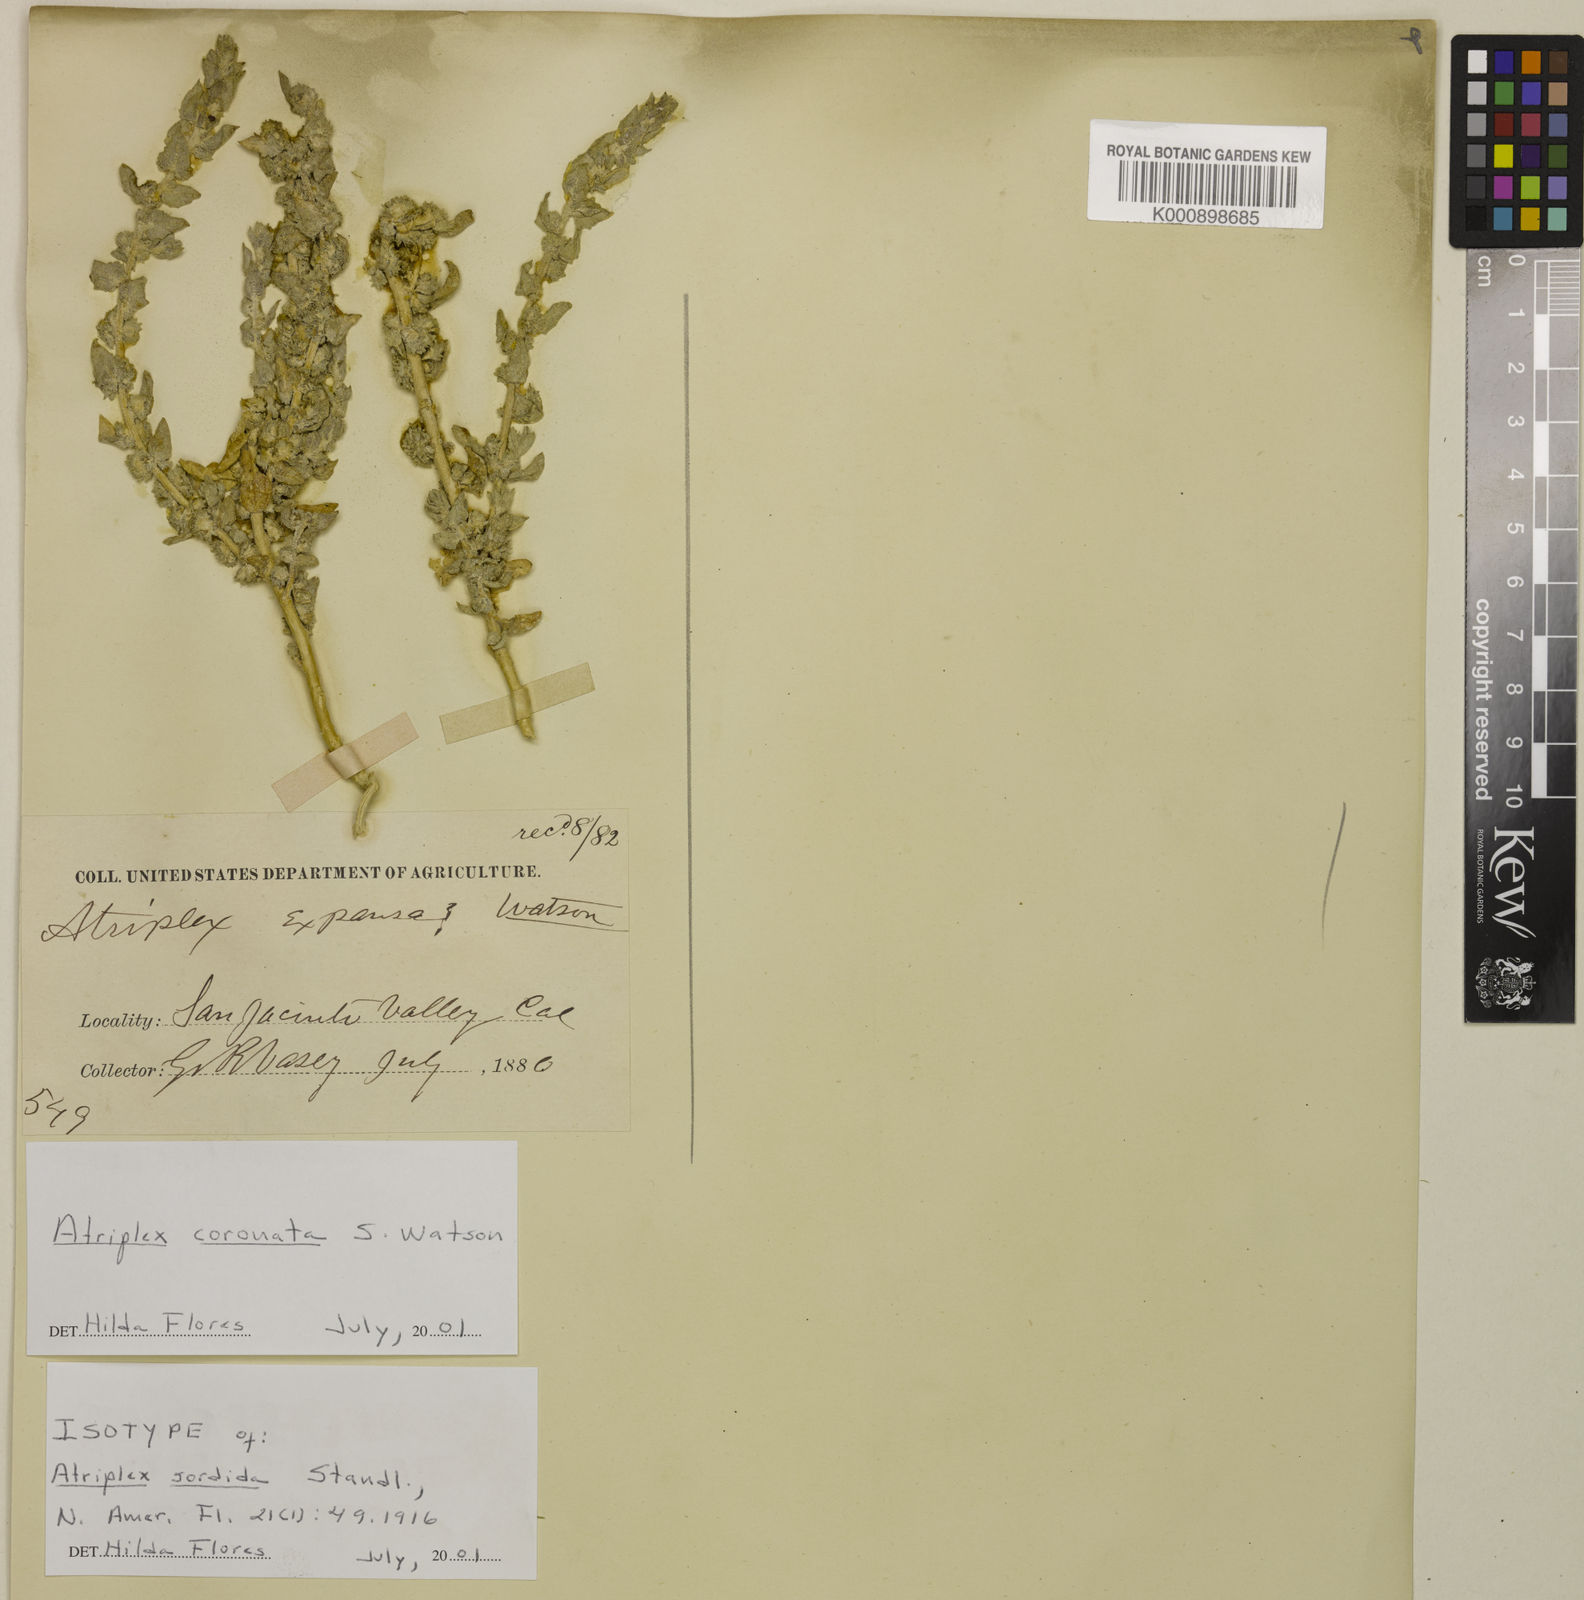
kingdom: Plantae
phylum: Tracheophyta
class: Magnoliopsida
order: Caryophyllales
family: Amaranthaceae
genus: Atriplex
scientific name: Atriplex coronata
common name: Crownscale
